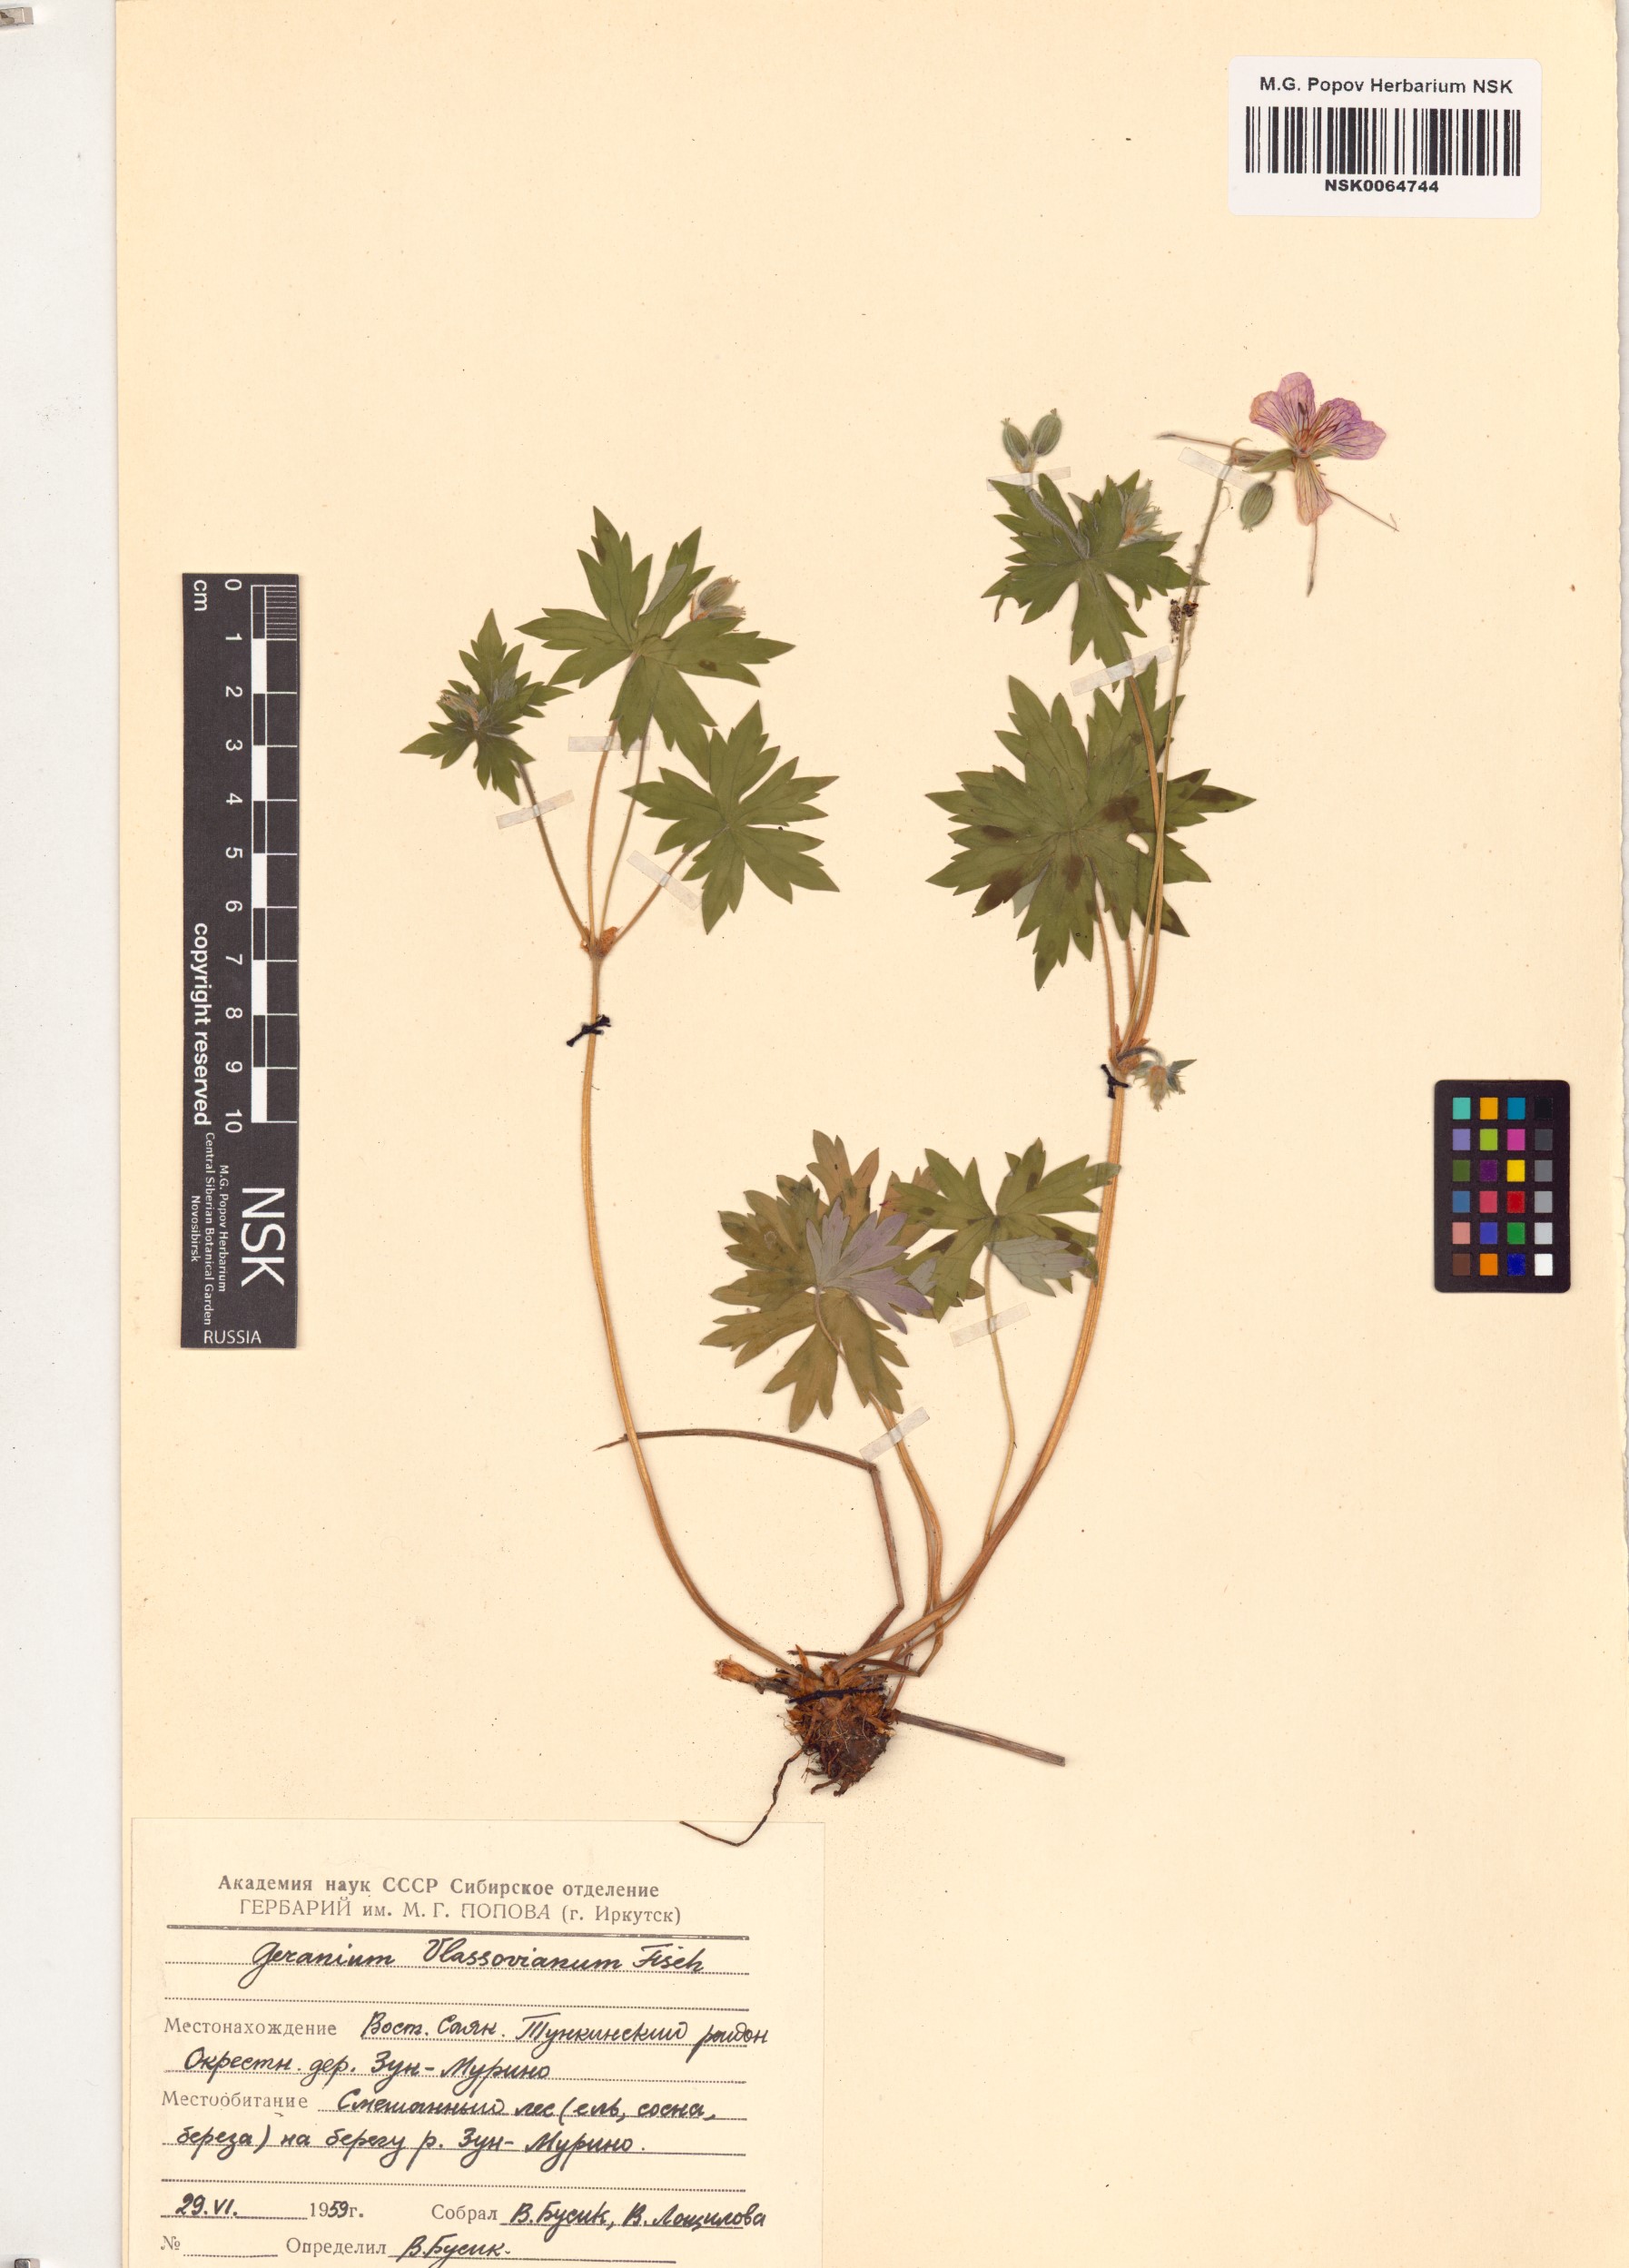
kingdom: Plantae
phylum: Tracheophyta
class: Magnoliopsida
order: Geraniales
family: Geraniaceae
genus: Geranium
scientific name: Geranium wlassovianum
